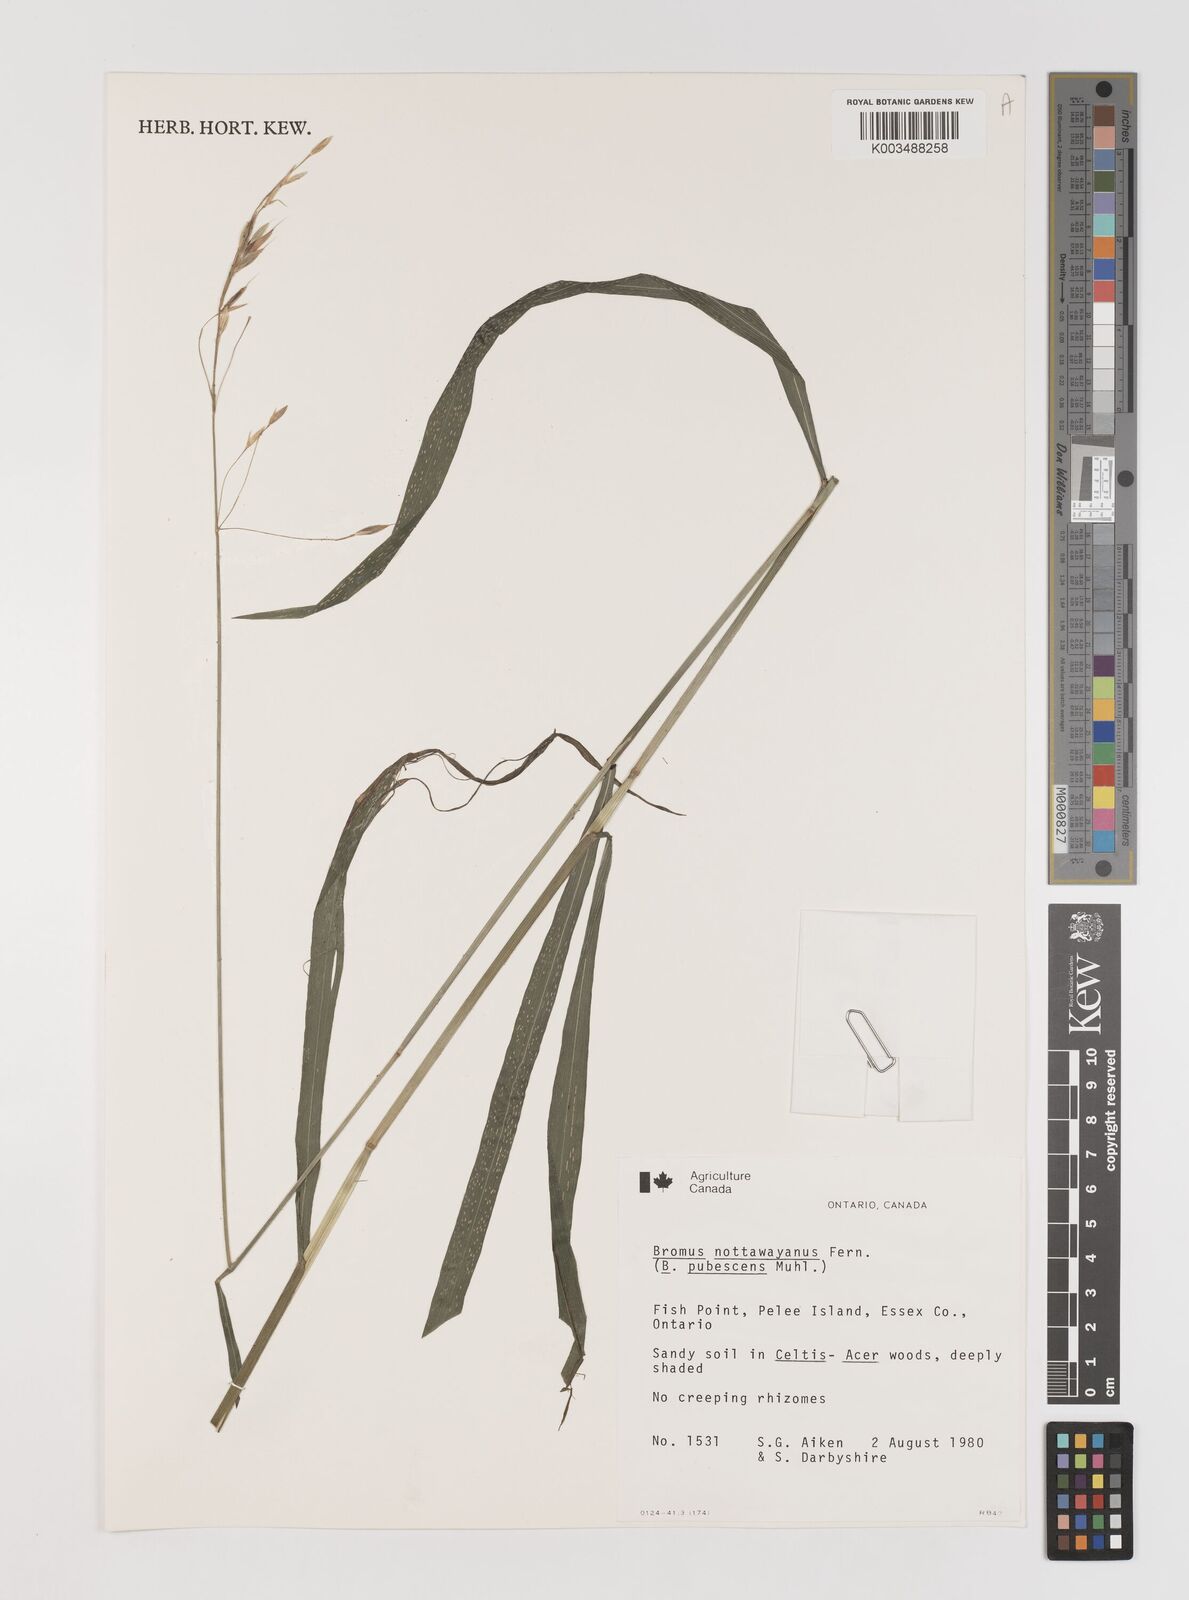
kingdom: Plantae
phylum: Tracheophyta
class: Liliopsida
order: Poales
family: Poaceae
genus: Bromus
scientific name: Bromus nottowayanus
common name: Nottoway valley brome
